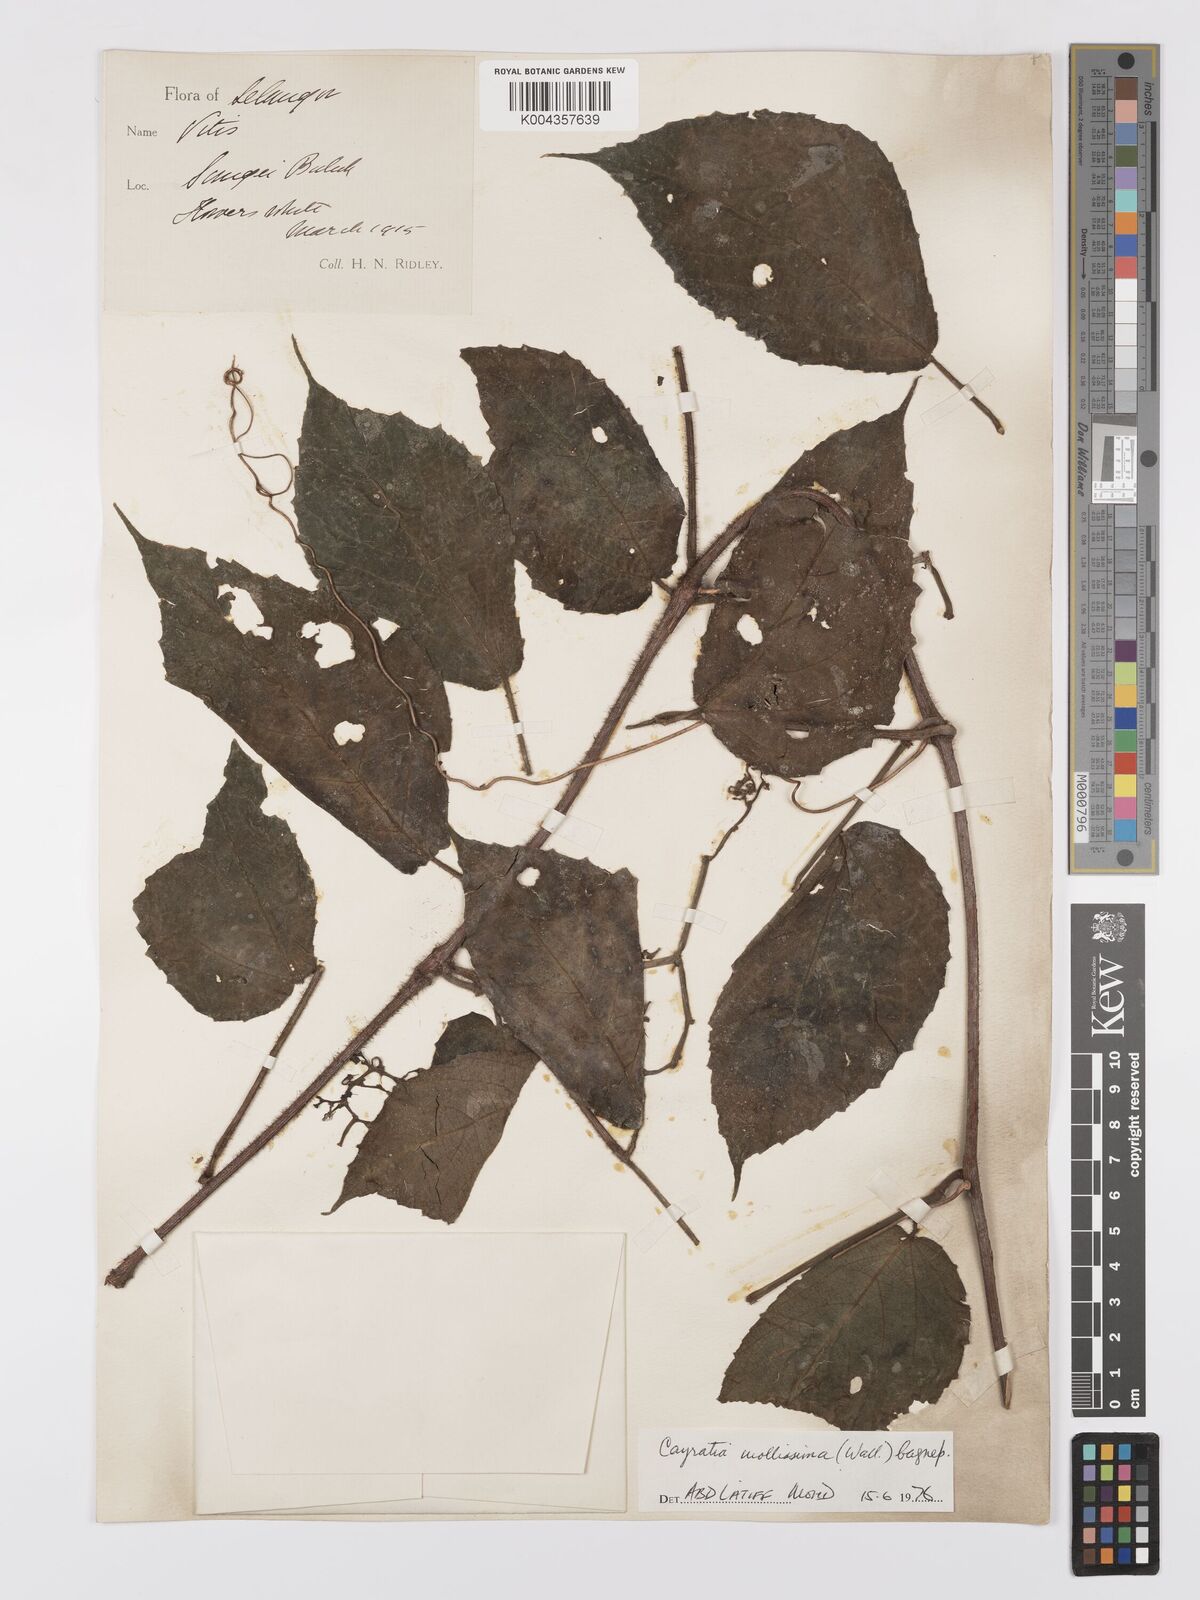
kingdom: Plantae
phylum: Tracheophyta
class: Magnoliopsida
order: Vitales
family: Vitaceae
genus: Cayratia
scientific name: Cayratia mollissima
